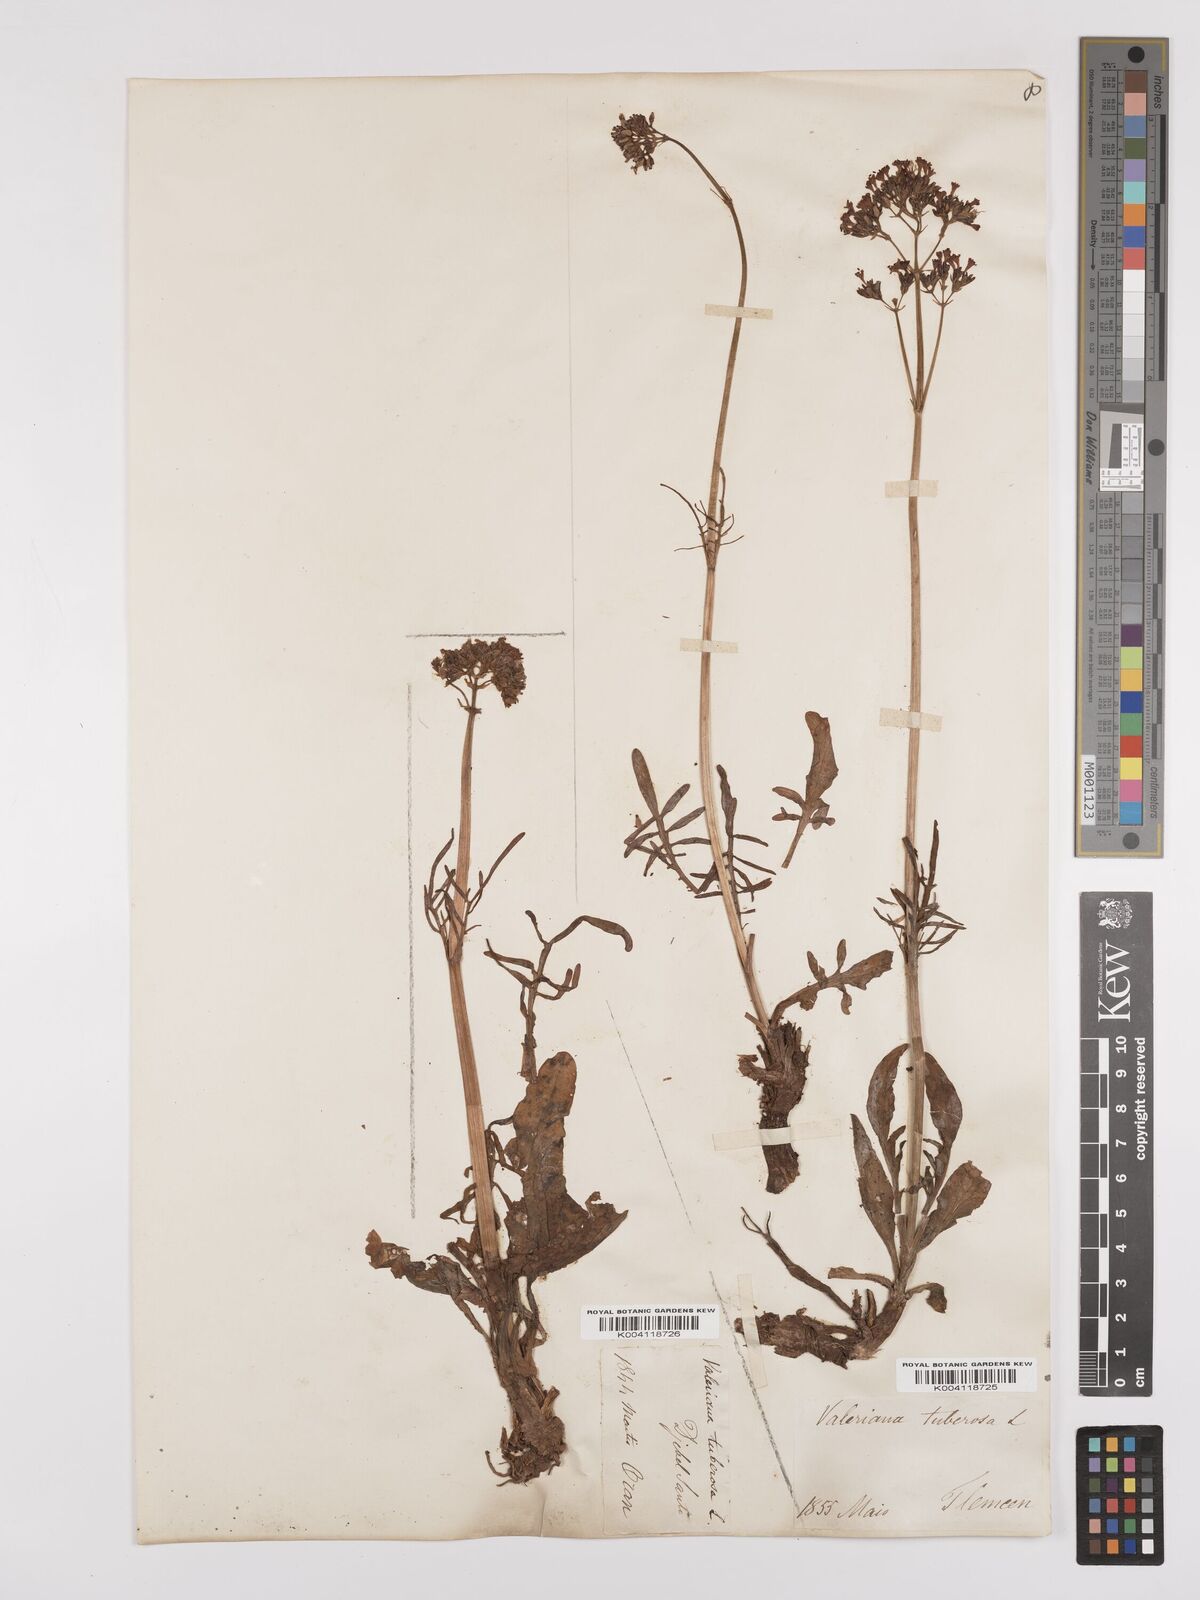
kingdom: Plantae
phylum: Tracheophyta
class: Magnoliopsida
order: Dipsacales
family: Caprifoliaceae
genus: Valeriana
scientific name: Valeriana tuberosa
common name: Tuberous valerian
